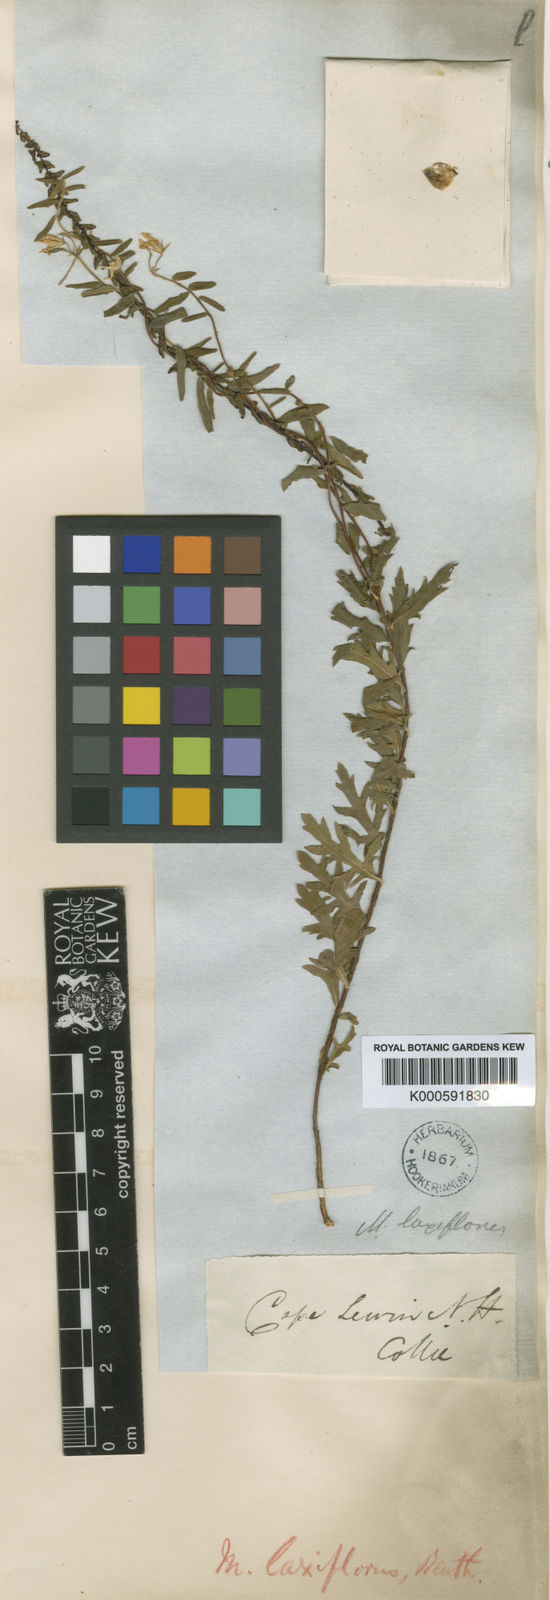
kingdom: Plantae
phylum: Tracheophyta
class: Magnoliopsida
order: Apiales
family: Pittosporaceae
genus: Billardiera
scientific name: Billardiera laxiflora
